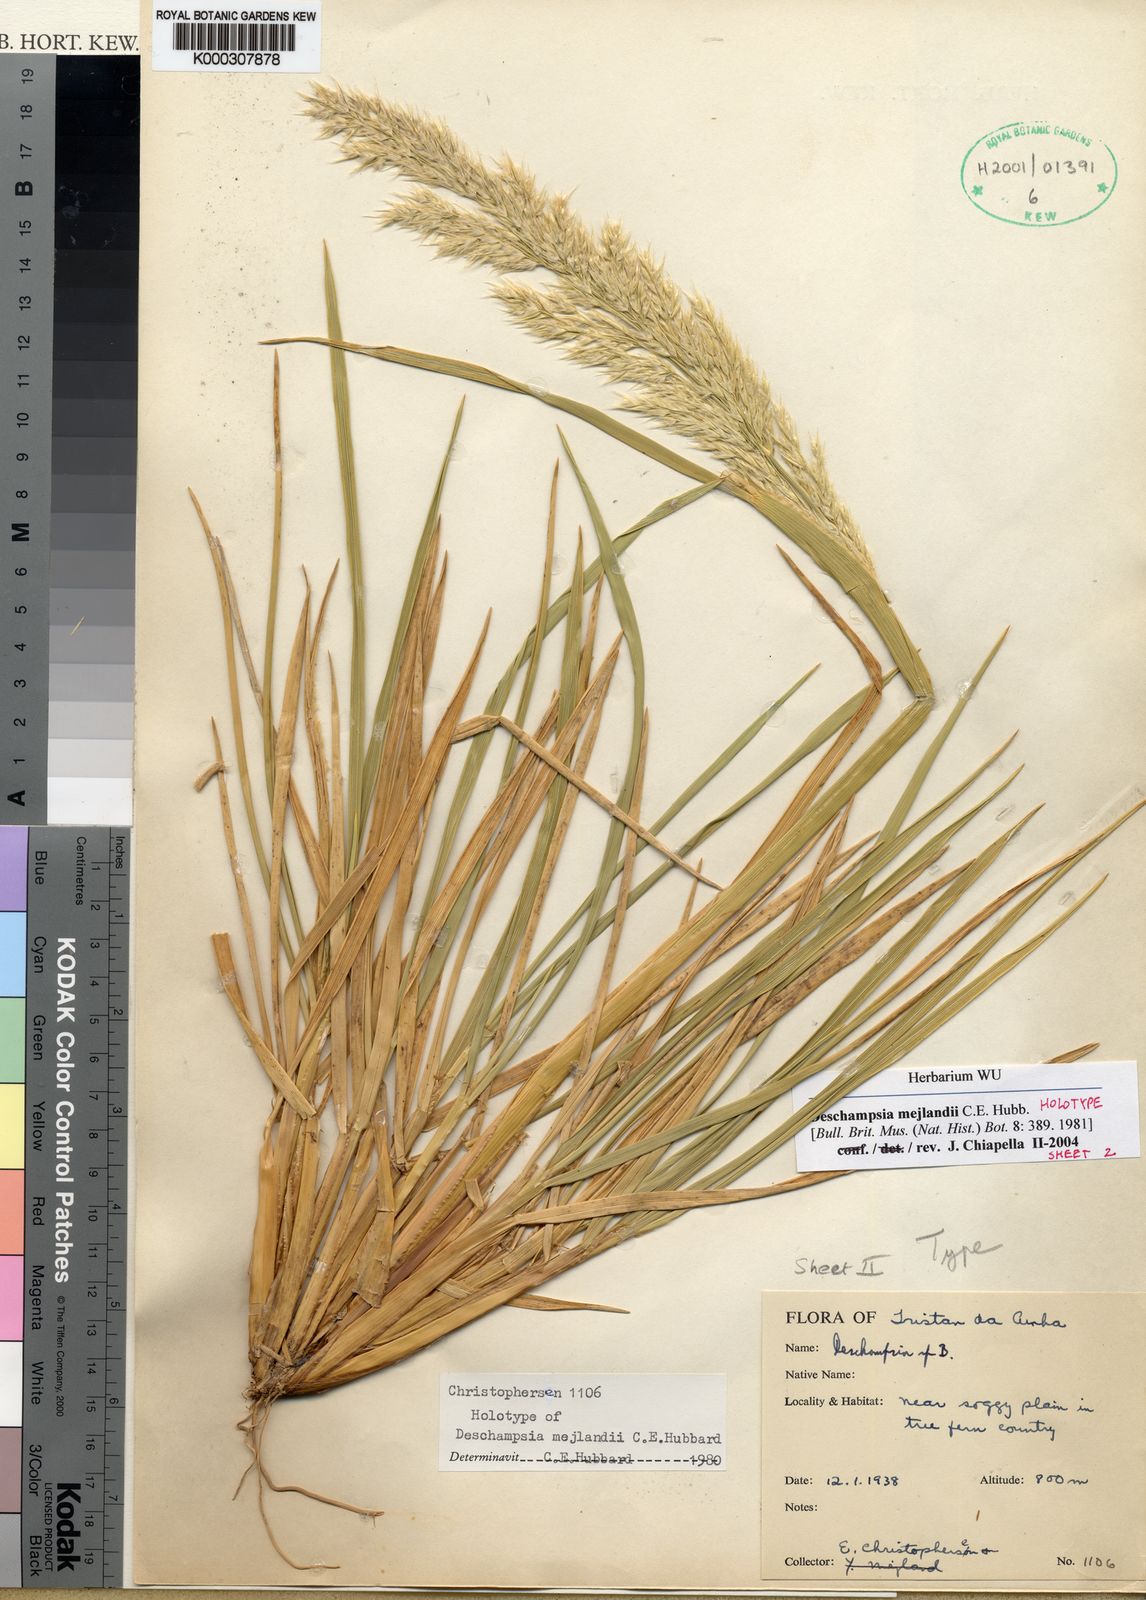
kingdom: Plantae
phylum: Tracheophyta
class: Liliopsida
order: Poales
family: Poaceae
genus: Deschampsia
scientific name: Deschampsia mejlandii
